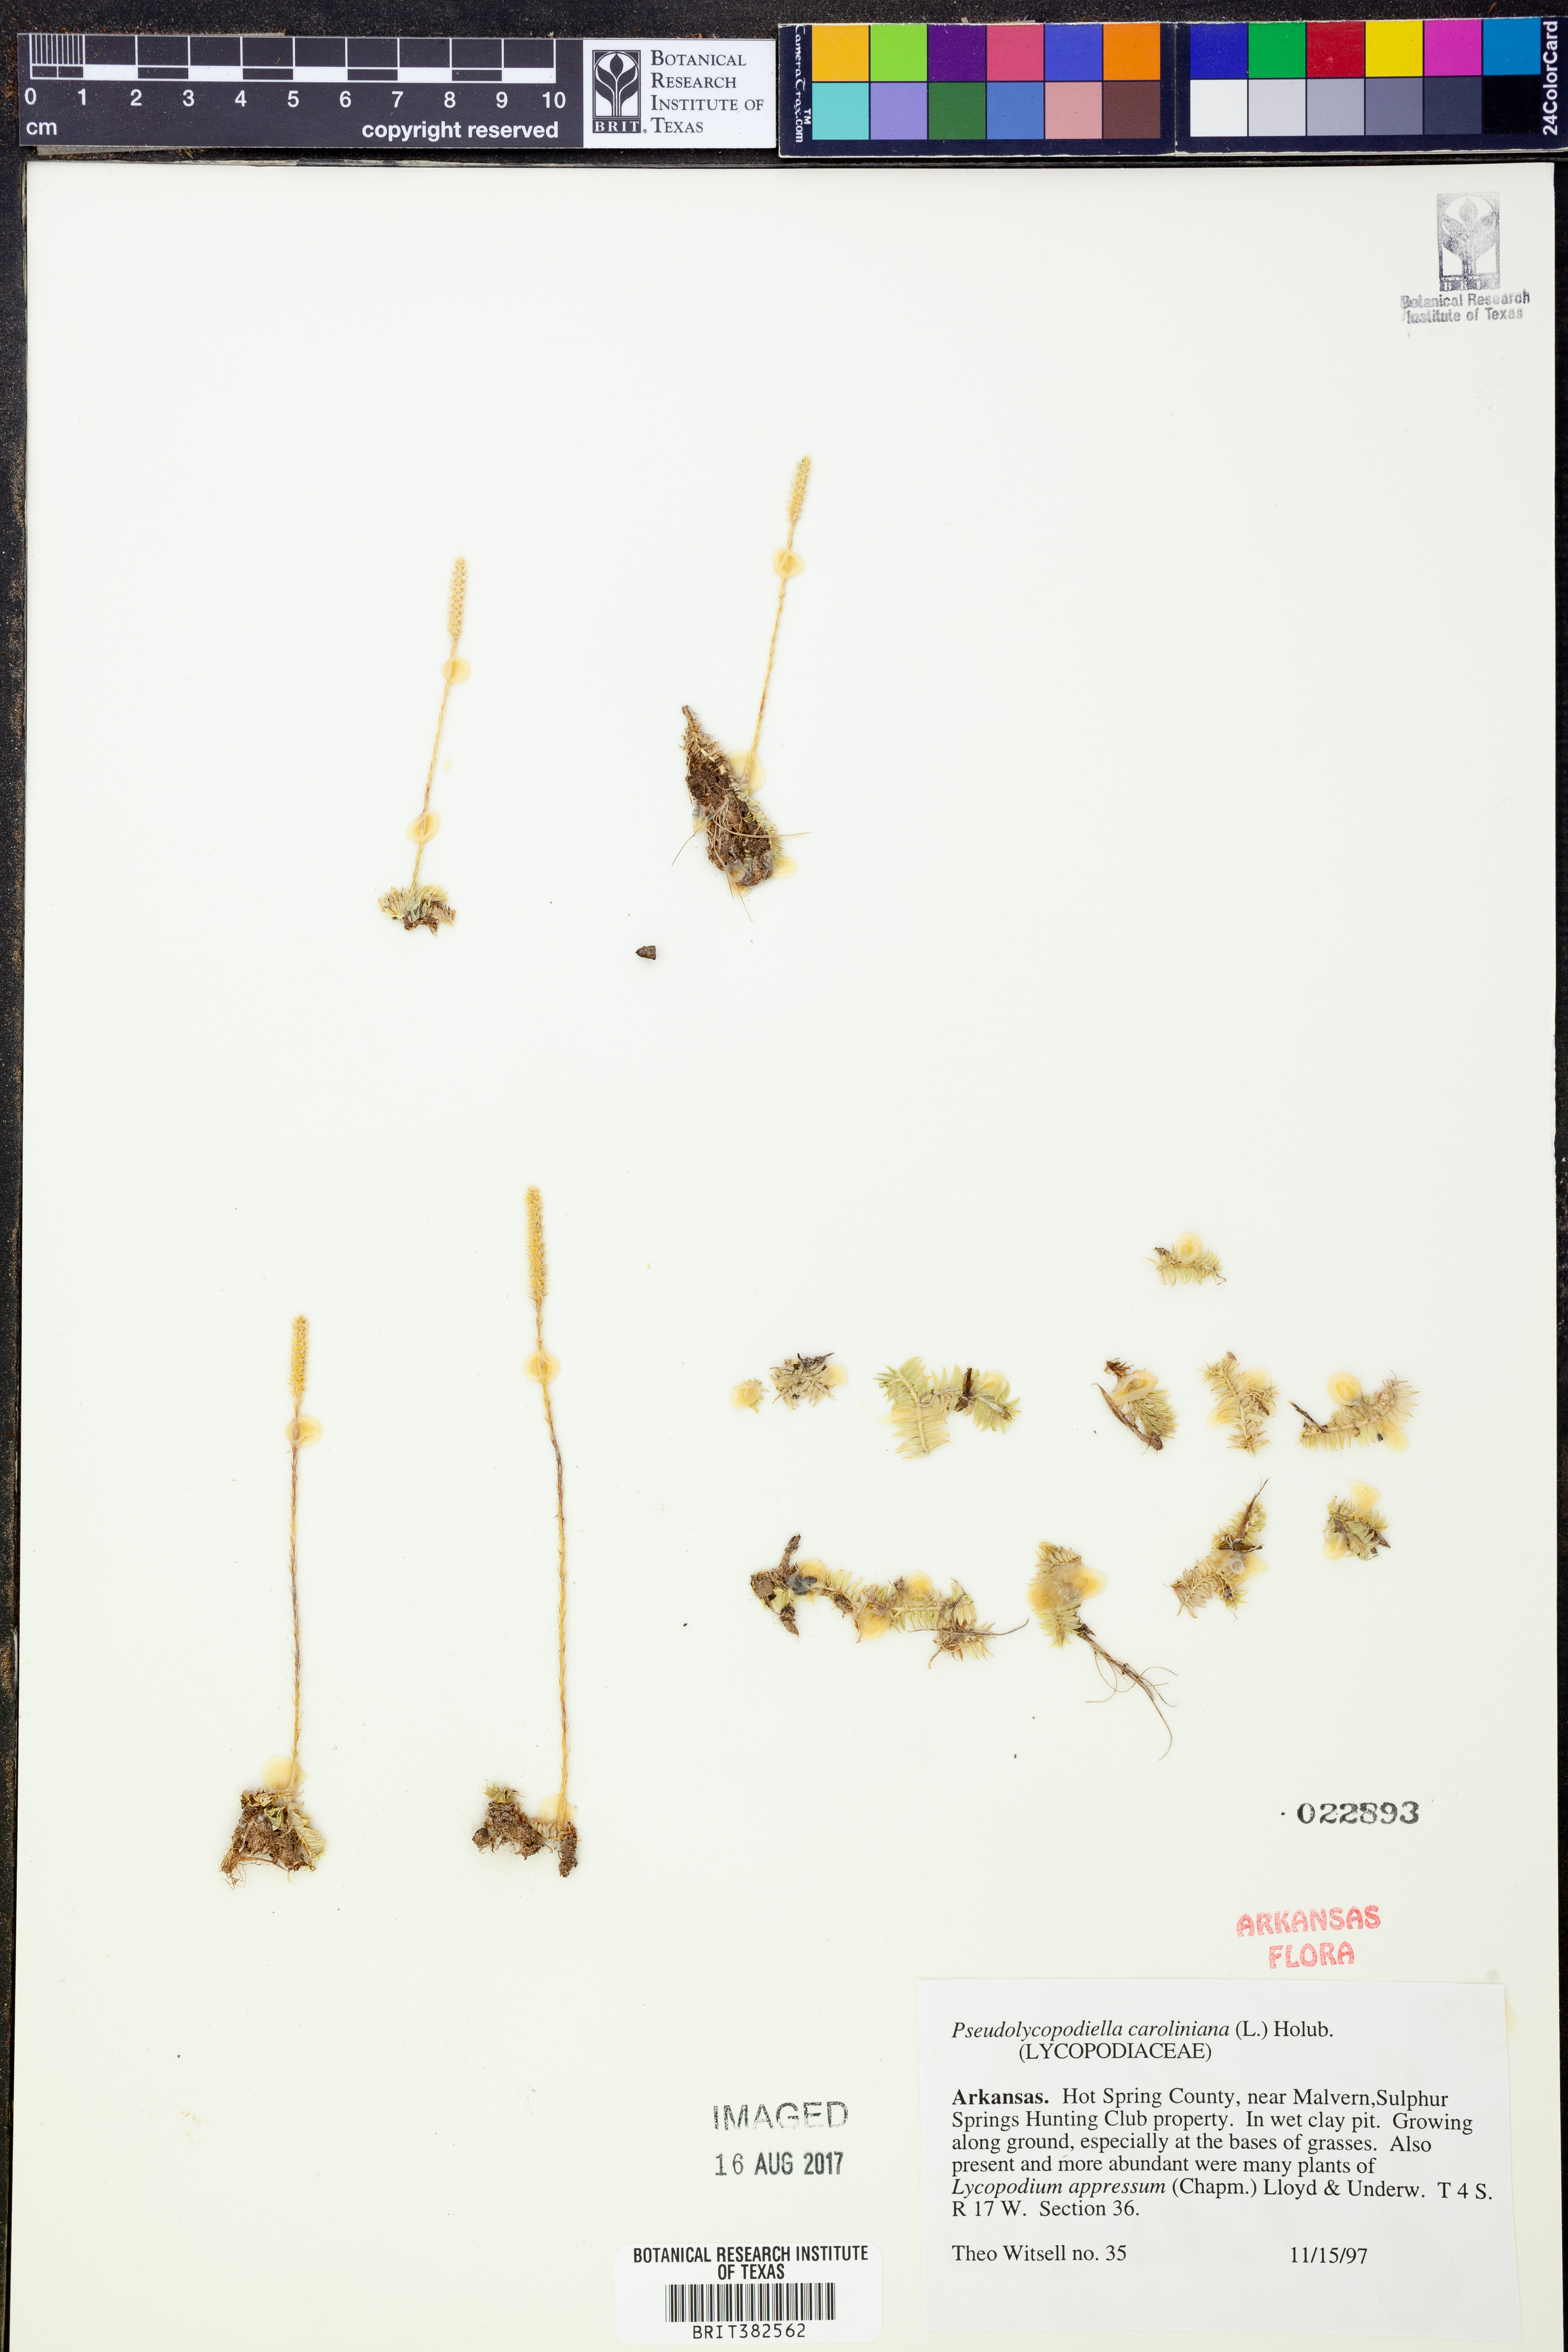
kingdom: Plantae
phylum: Tracheophyta
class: Lycopodiopsida
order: Lycopodiales
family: Lycopodiaceae
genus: Pseudolycopodiella
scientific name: Pseudolycopodiella caroliniana
